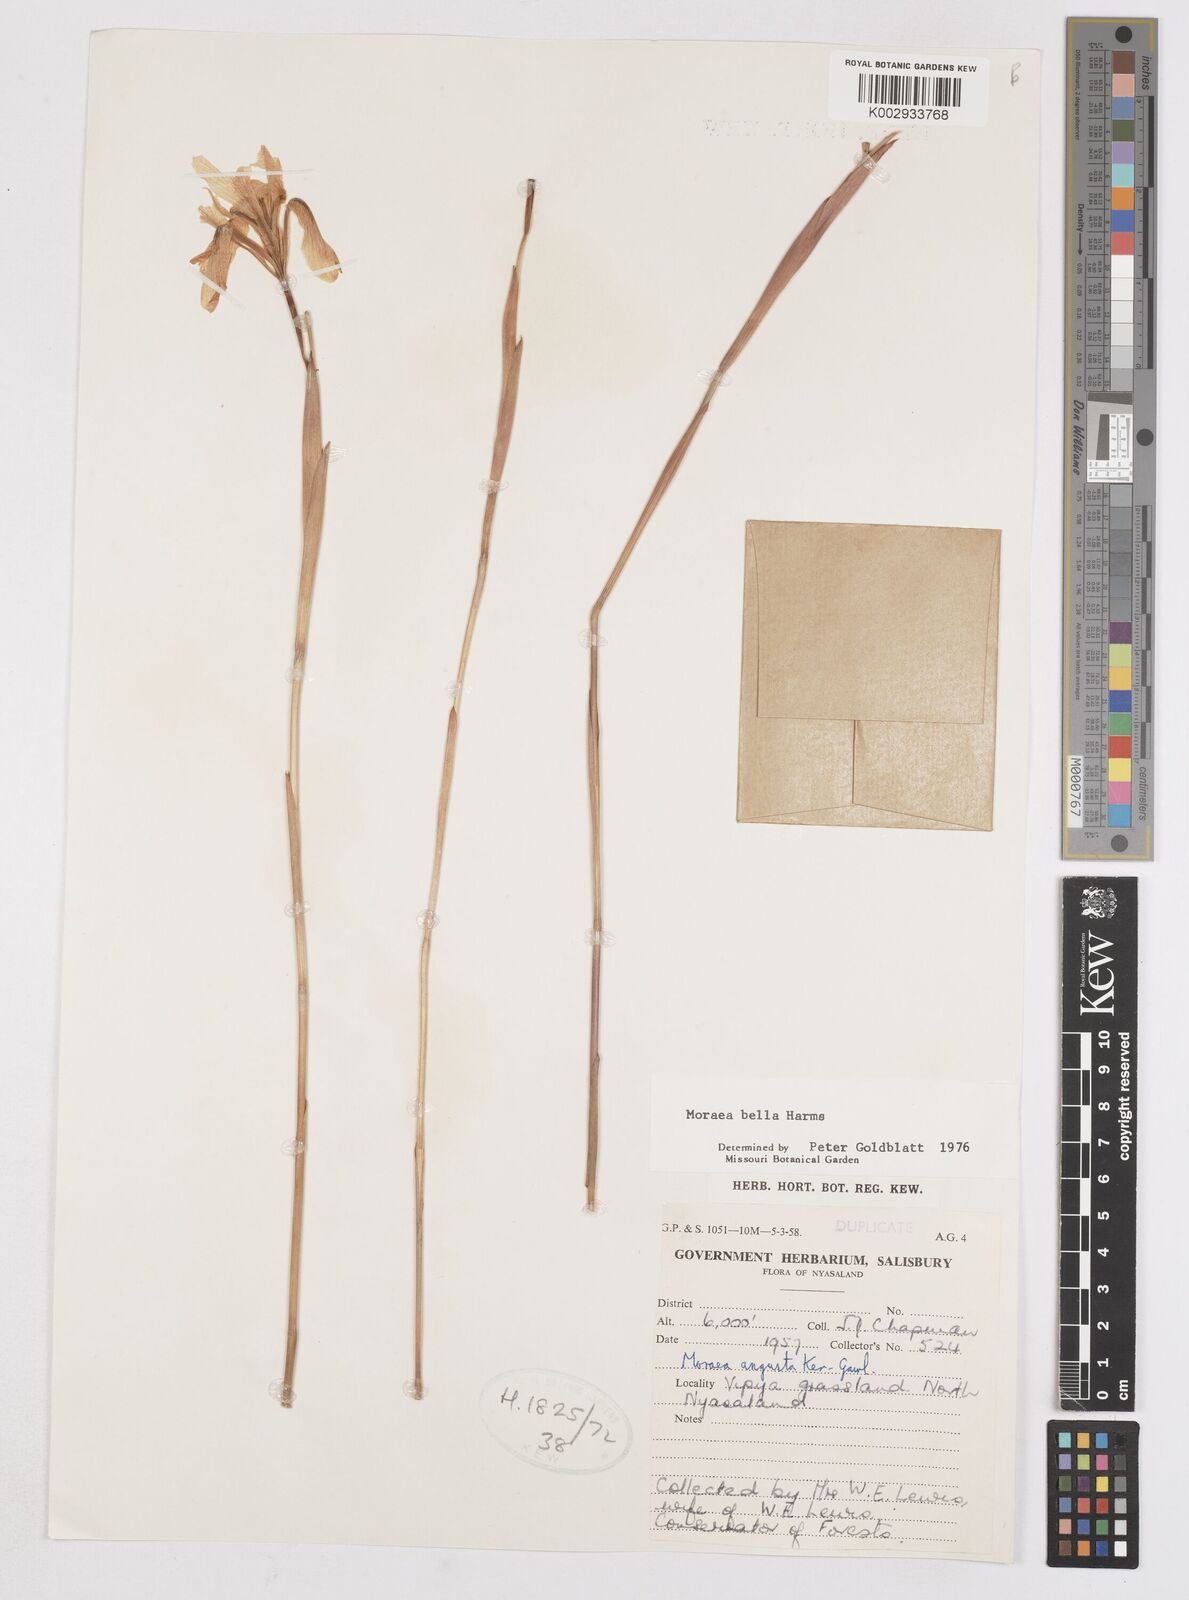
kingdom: Plantae
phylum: Tracheophyta
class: Liliopsida
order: Asparagales
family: Iridaceae
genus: Moraea
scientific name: Moraea bella
